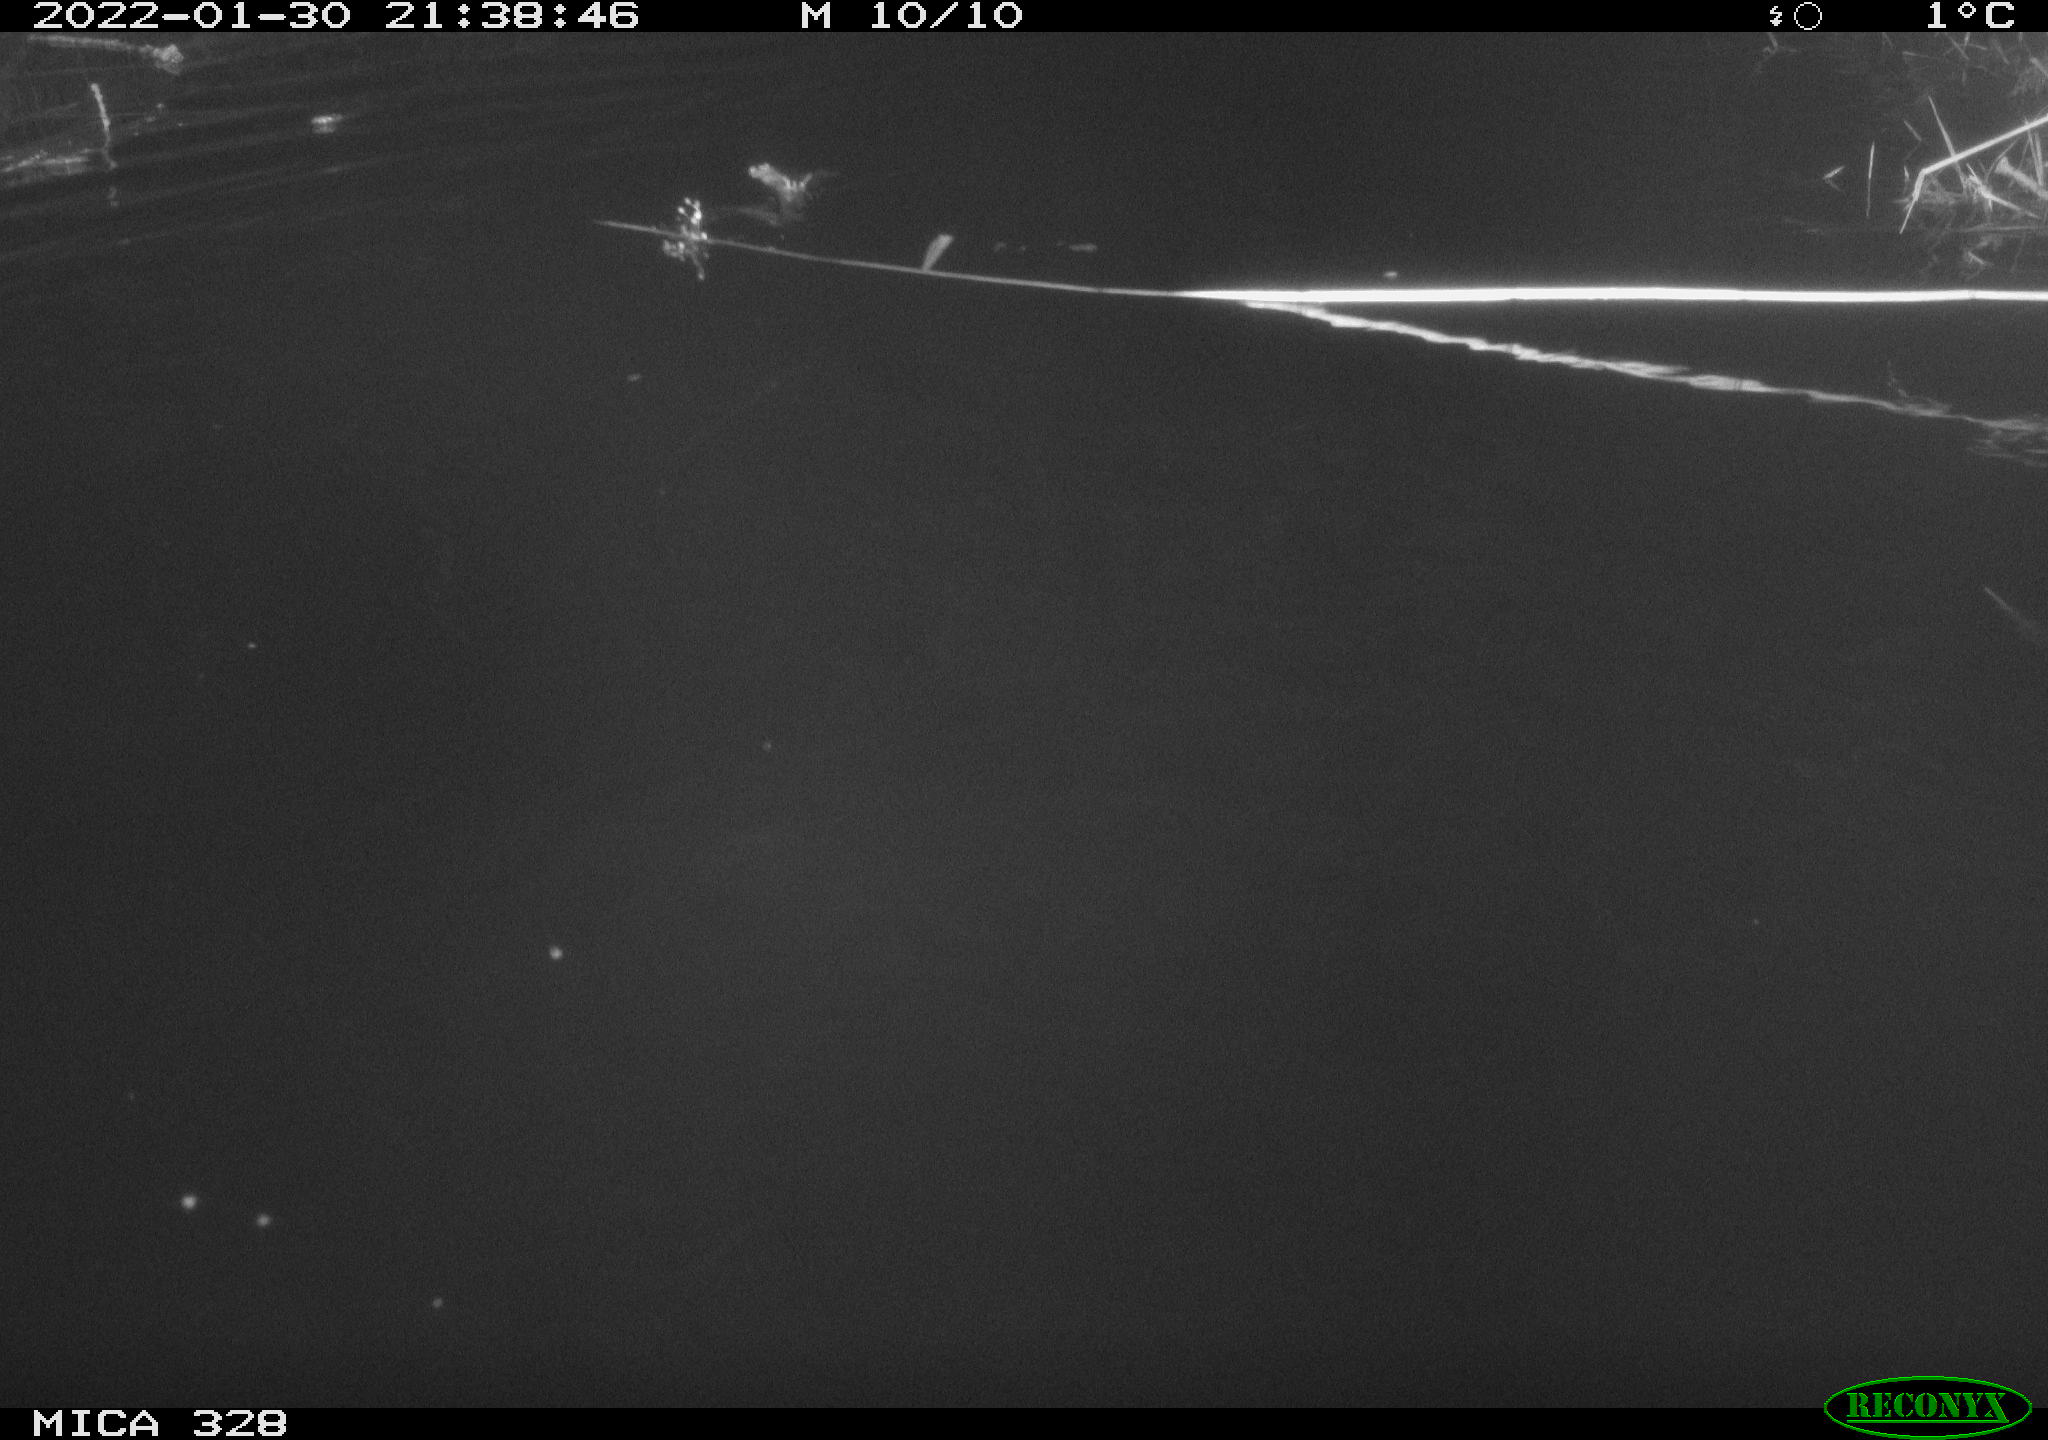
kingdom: Animalia
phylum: Chordata
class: Mammalia
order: Rodentia
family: Cricetidae
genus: Ondatra
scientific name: Ondatra zibethicus
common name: Muskrat
